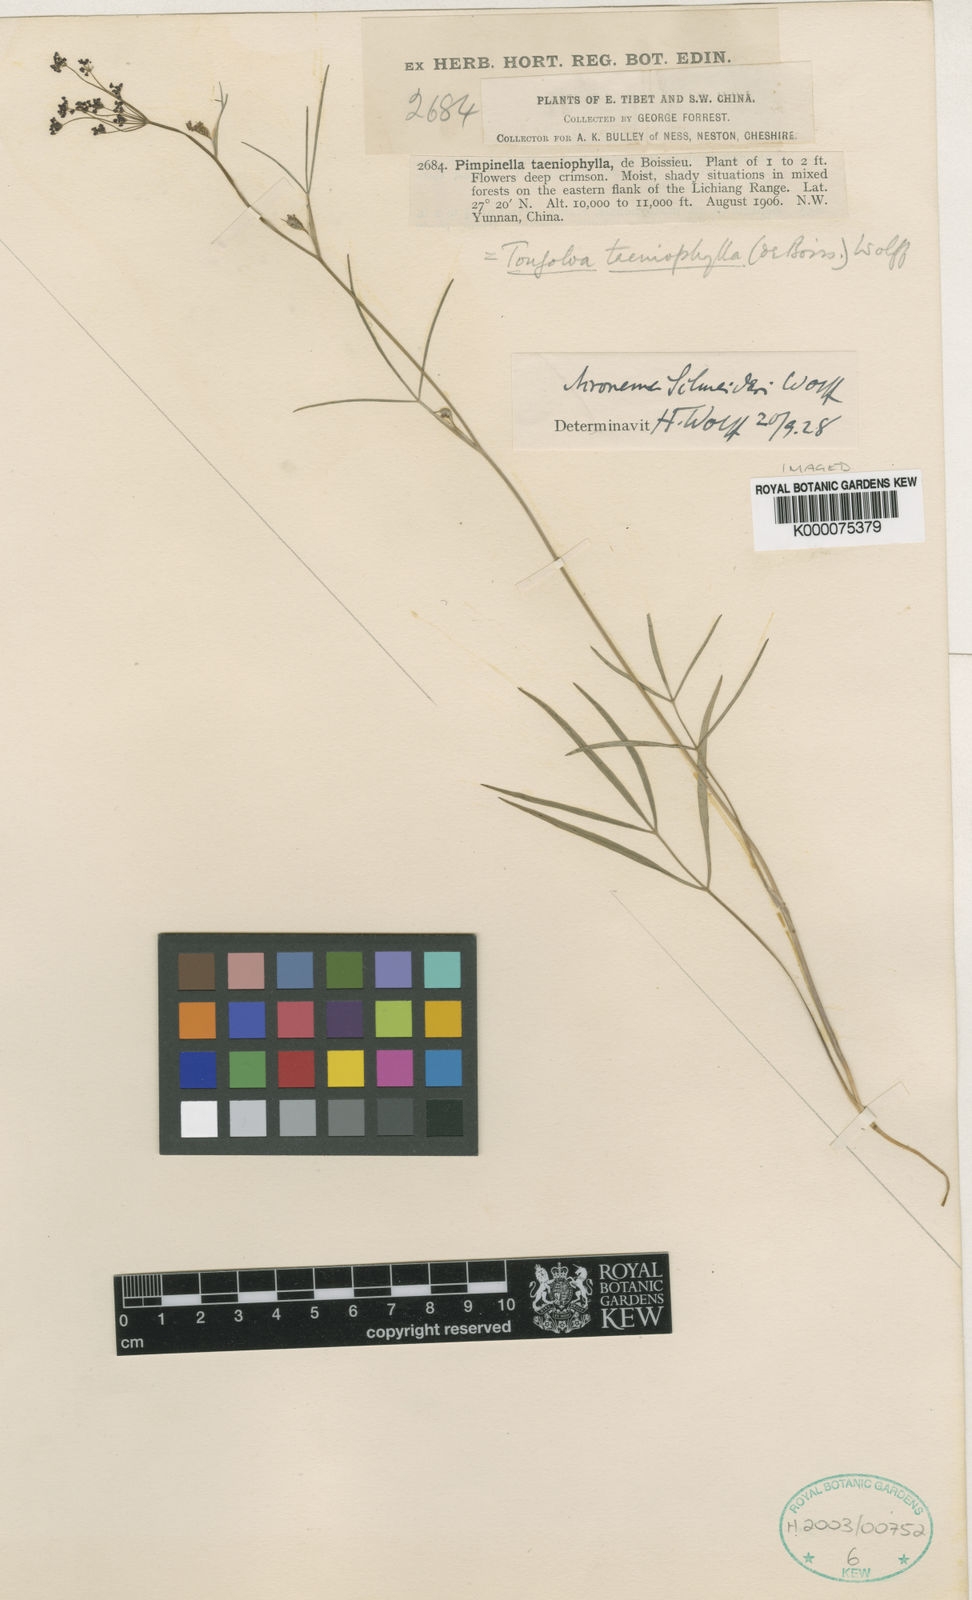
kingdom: Plantae
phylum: Tracheophyta
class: Magnoliopsida
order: Apiales
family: Apiaceae
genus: Tongoloa
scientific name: Tongoloa taeniophylla
